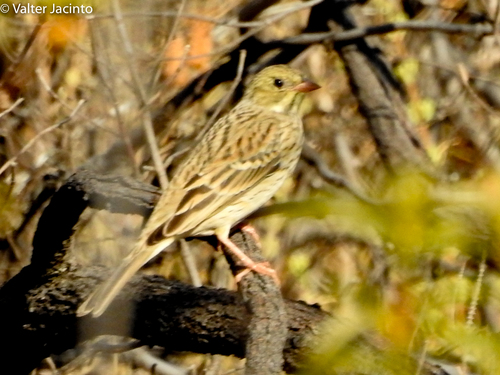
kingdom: Animalia
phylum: Chordata
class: Aves
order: Passeriformes
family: Emberizidae
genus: Emberiza
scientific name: Emberiza hortulana
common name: Ortolan bunting
